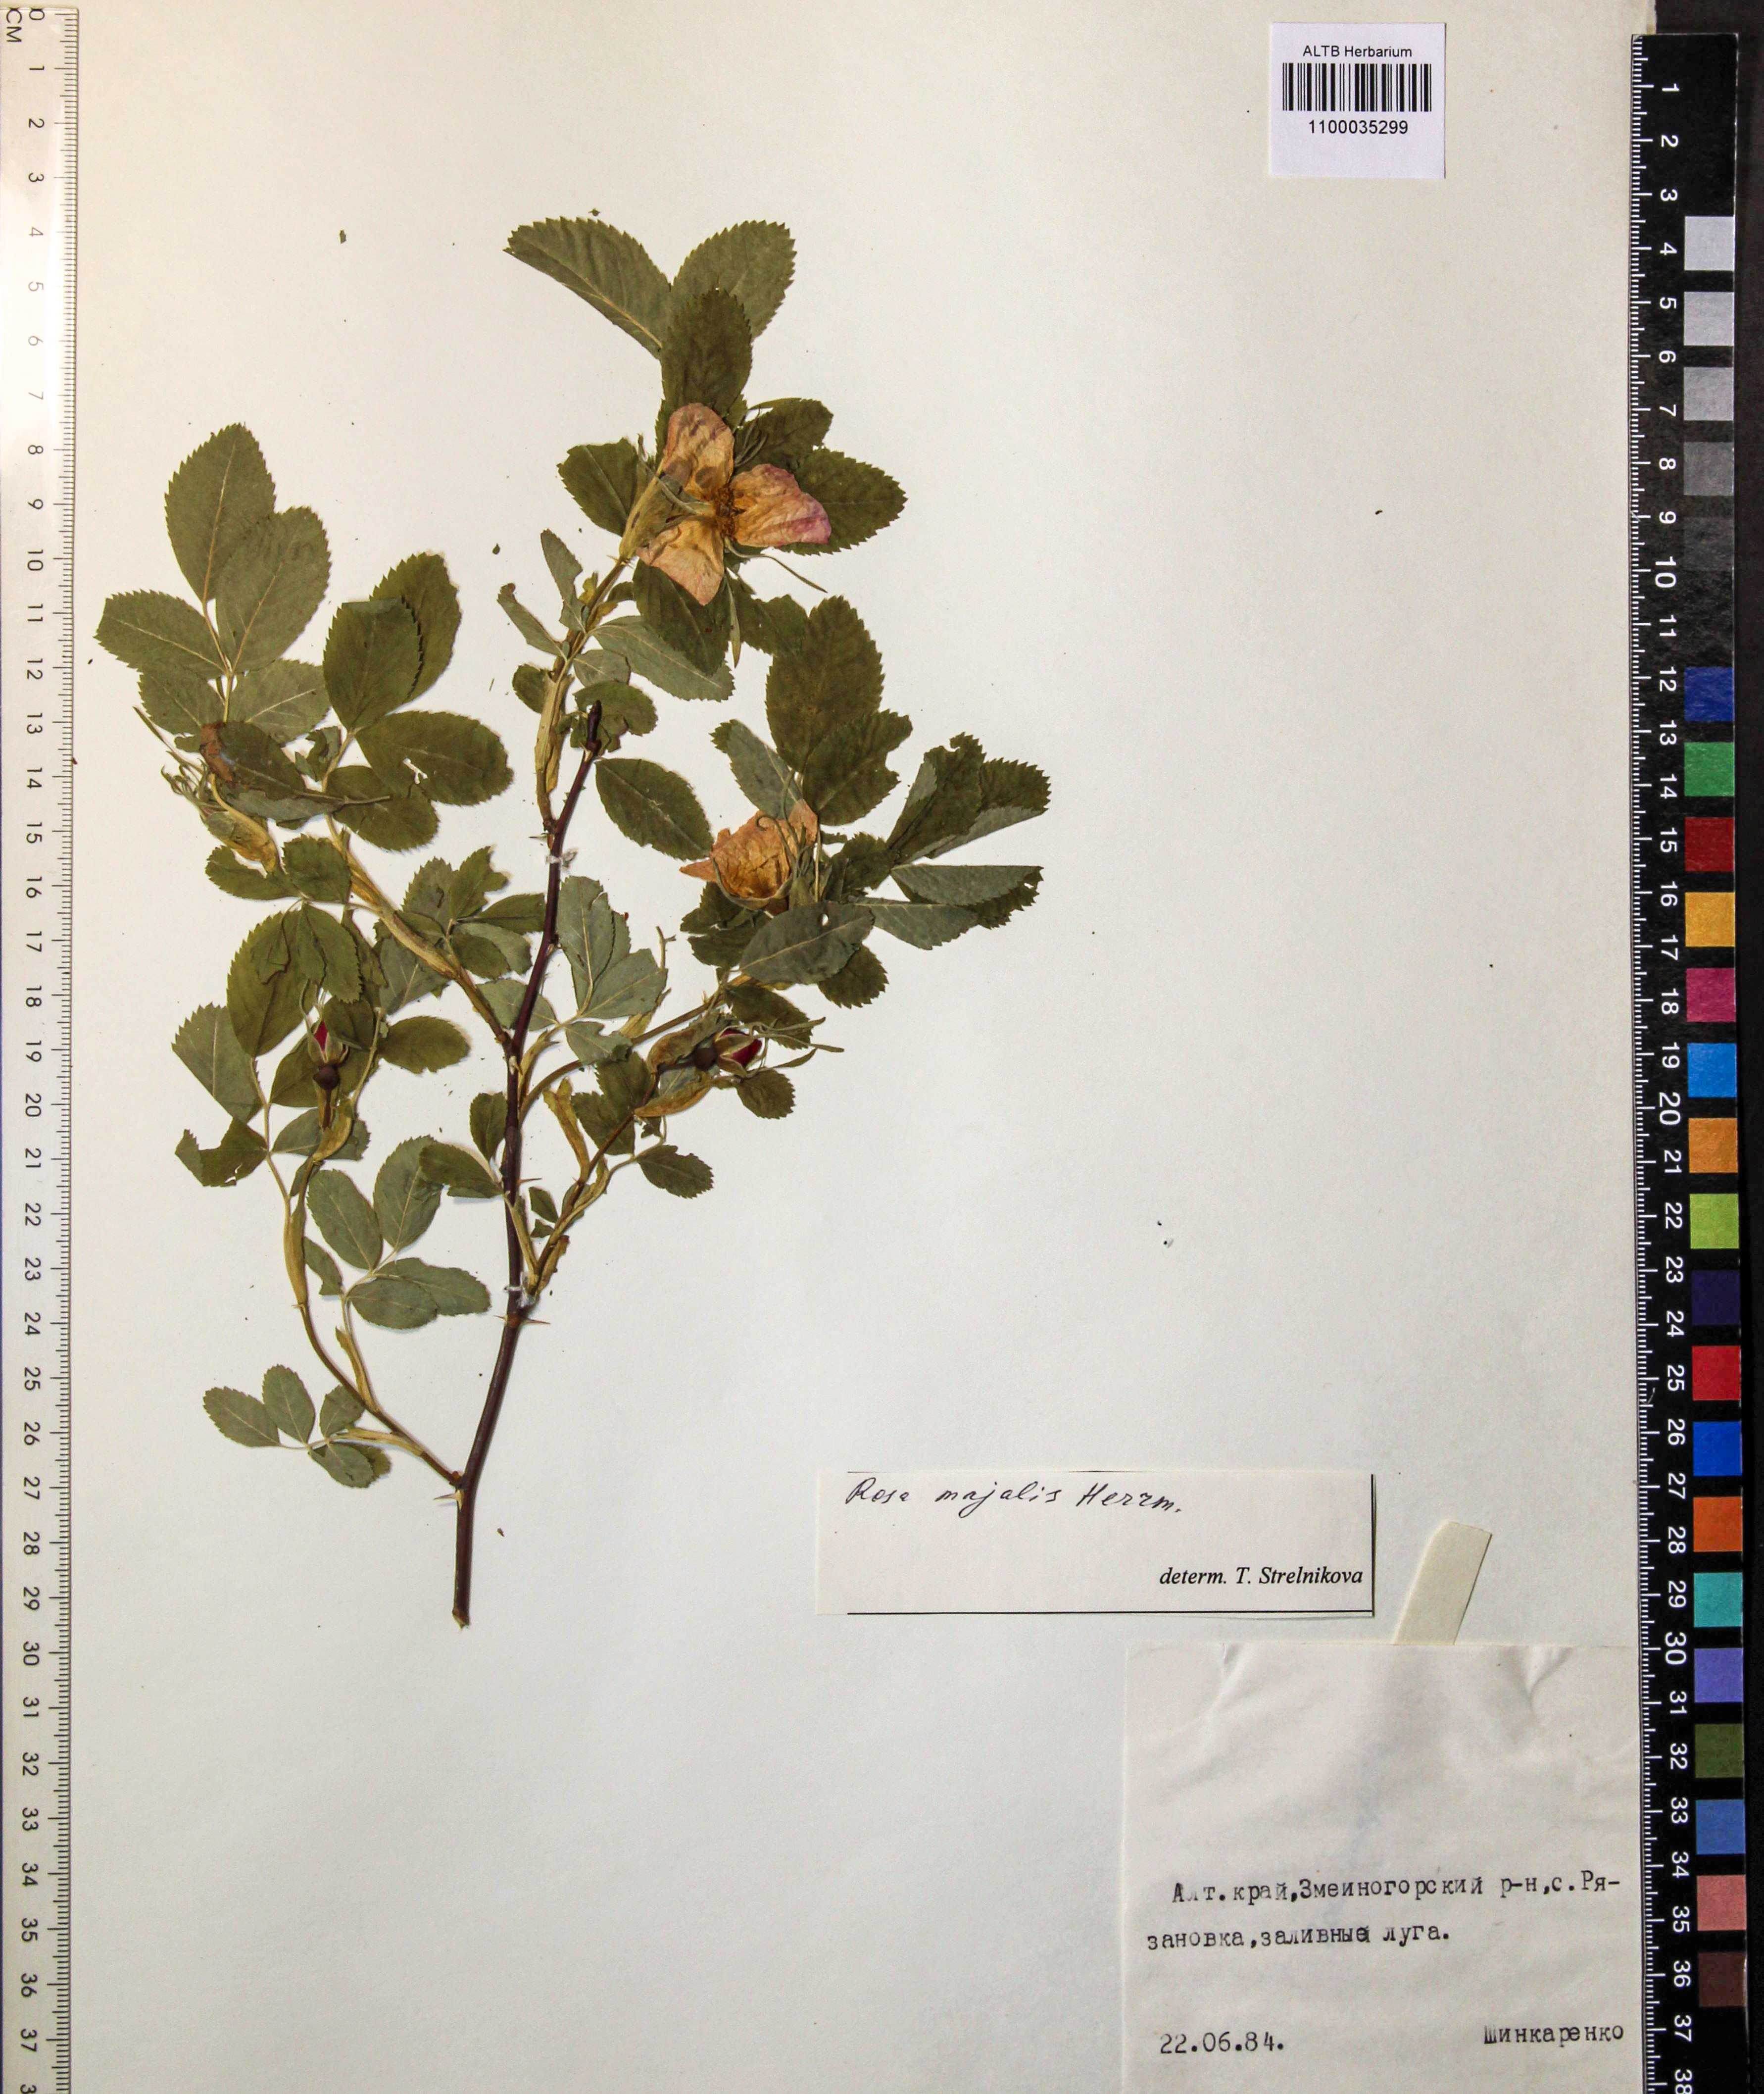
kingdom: Plantae
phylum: Tracheophyta
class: Magnoliopsida
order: Rosales
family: Rosaceae
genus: Rosa
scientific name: Rosa majalis
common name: Cinnamon rose
